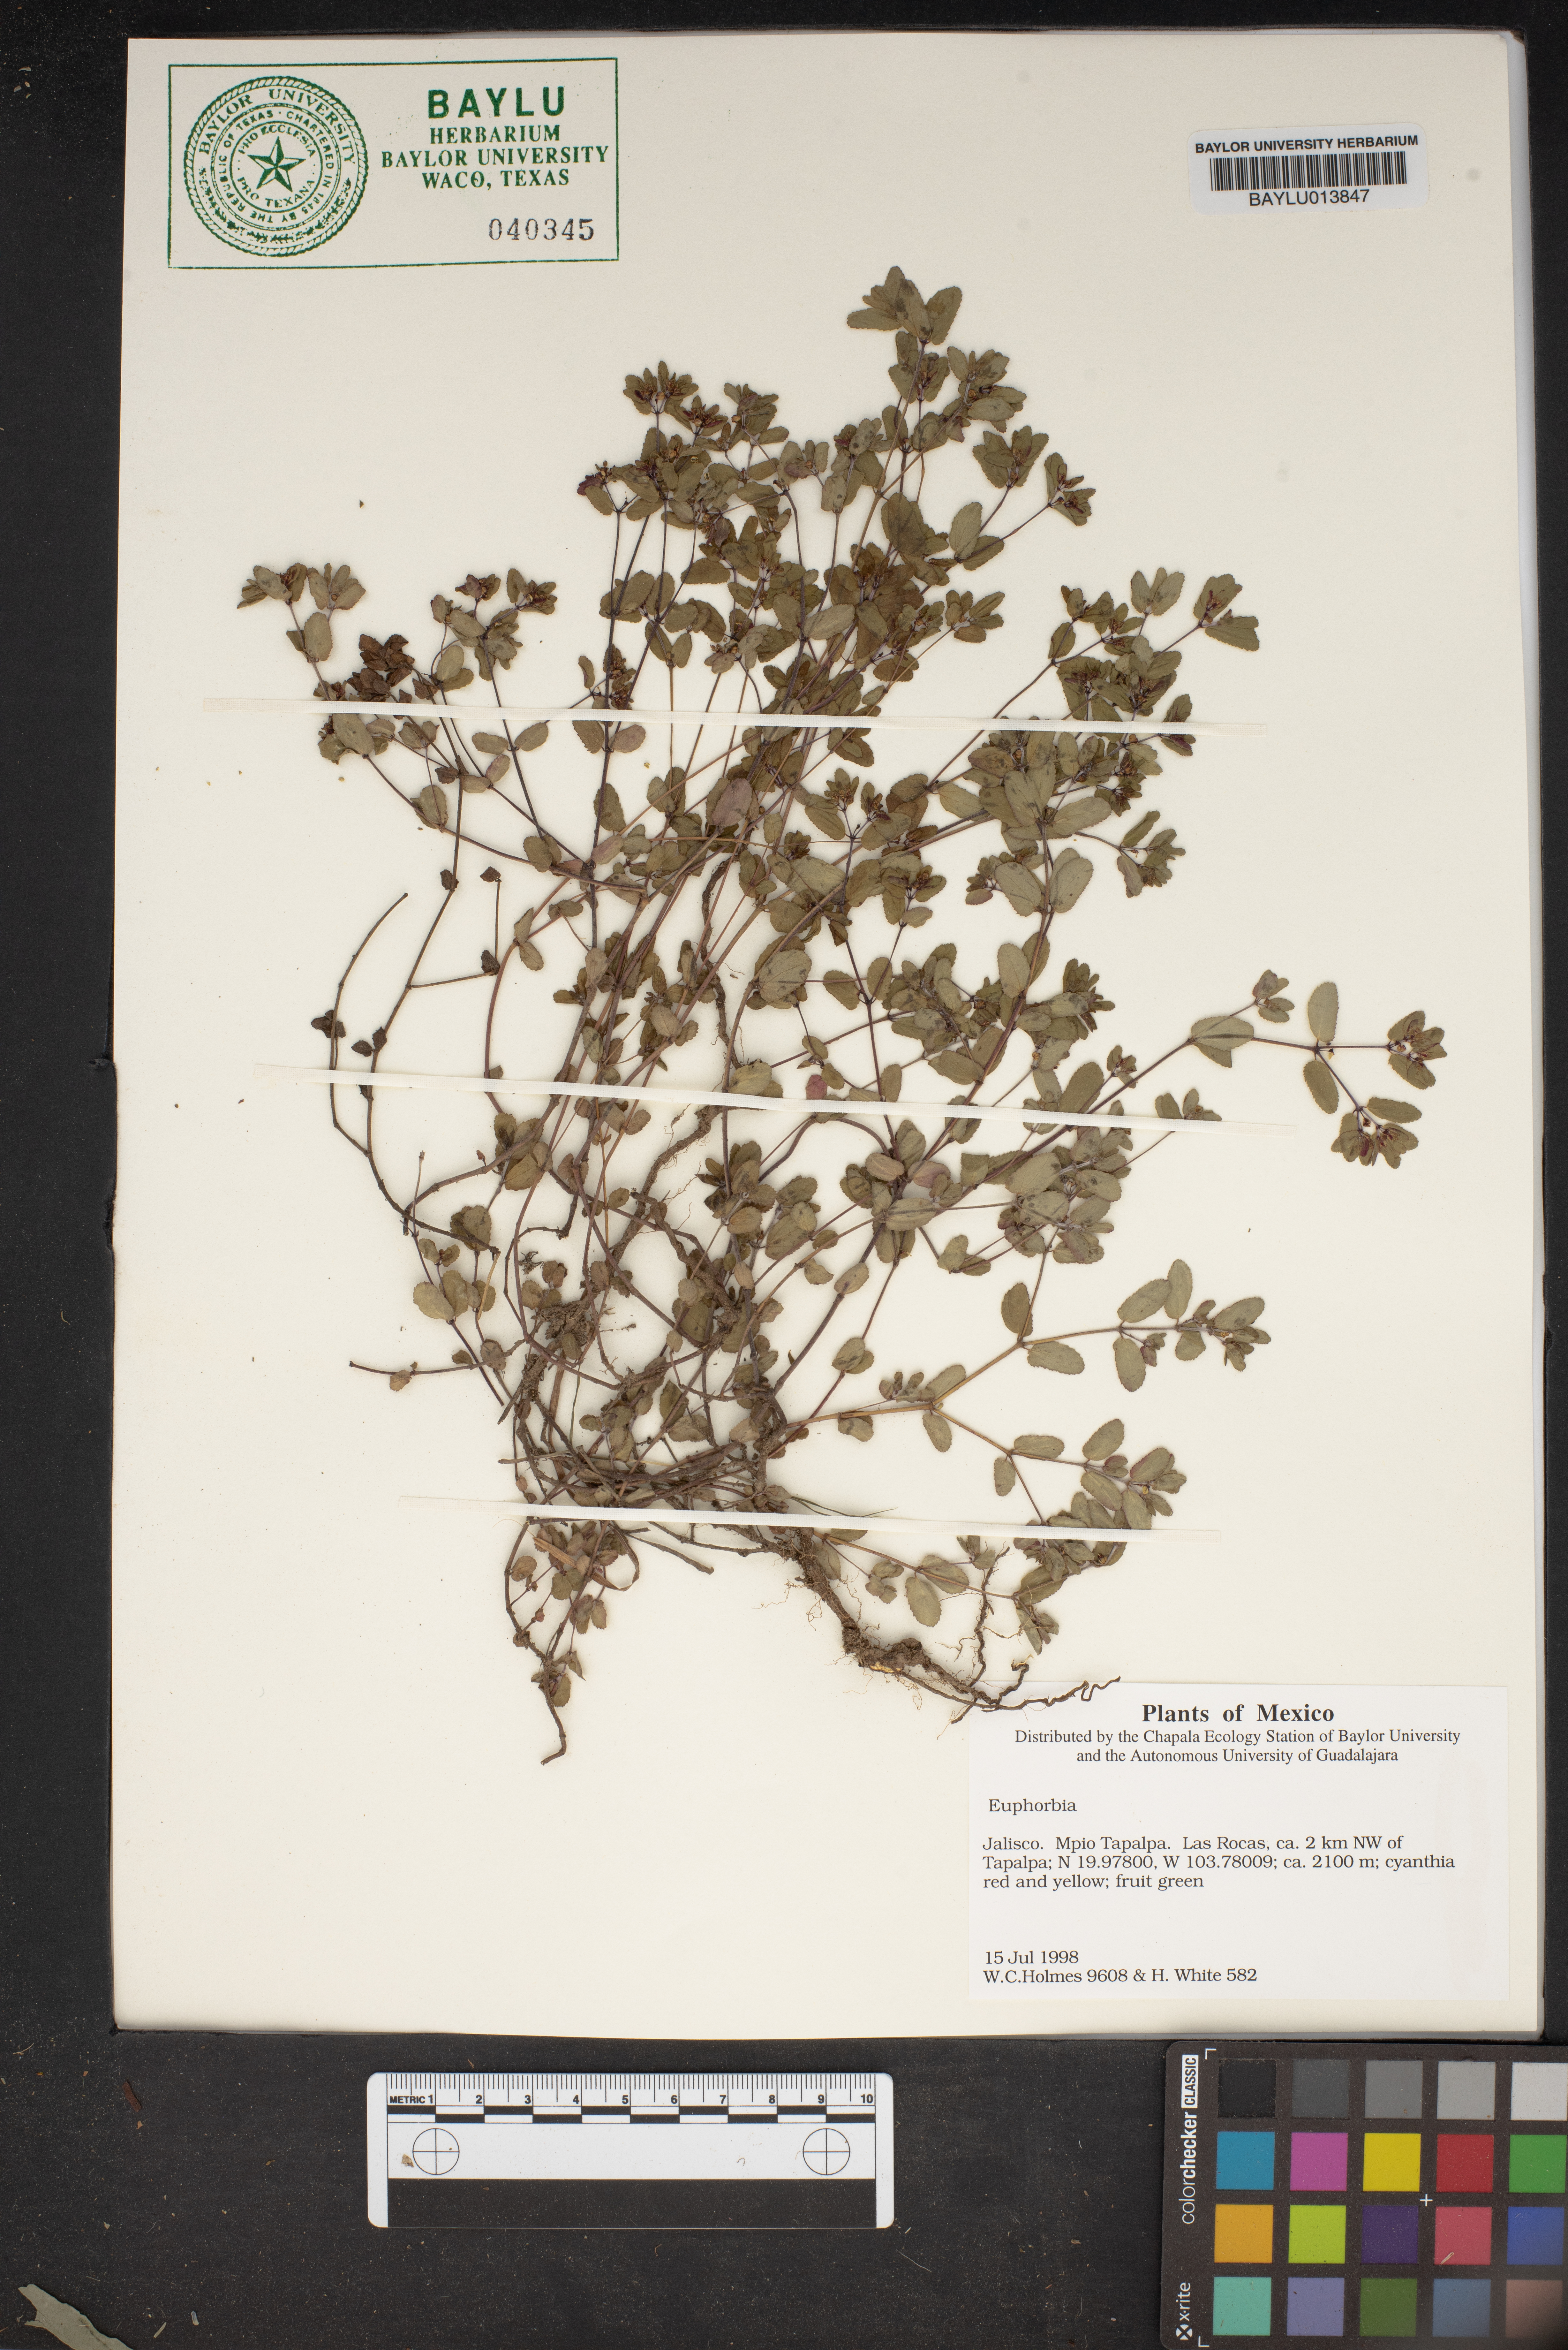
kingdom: Plantae
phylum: Tracheophyta
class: Magnoliopsida
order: Malpighiales
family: Euphorbiaceae
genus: Euphorbia
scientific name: Euphorbia
